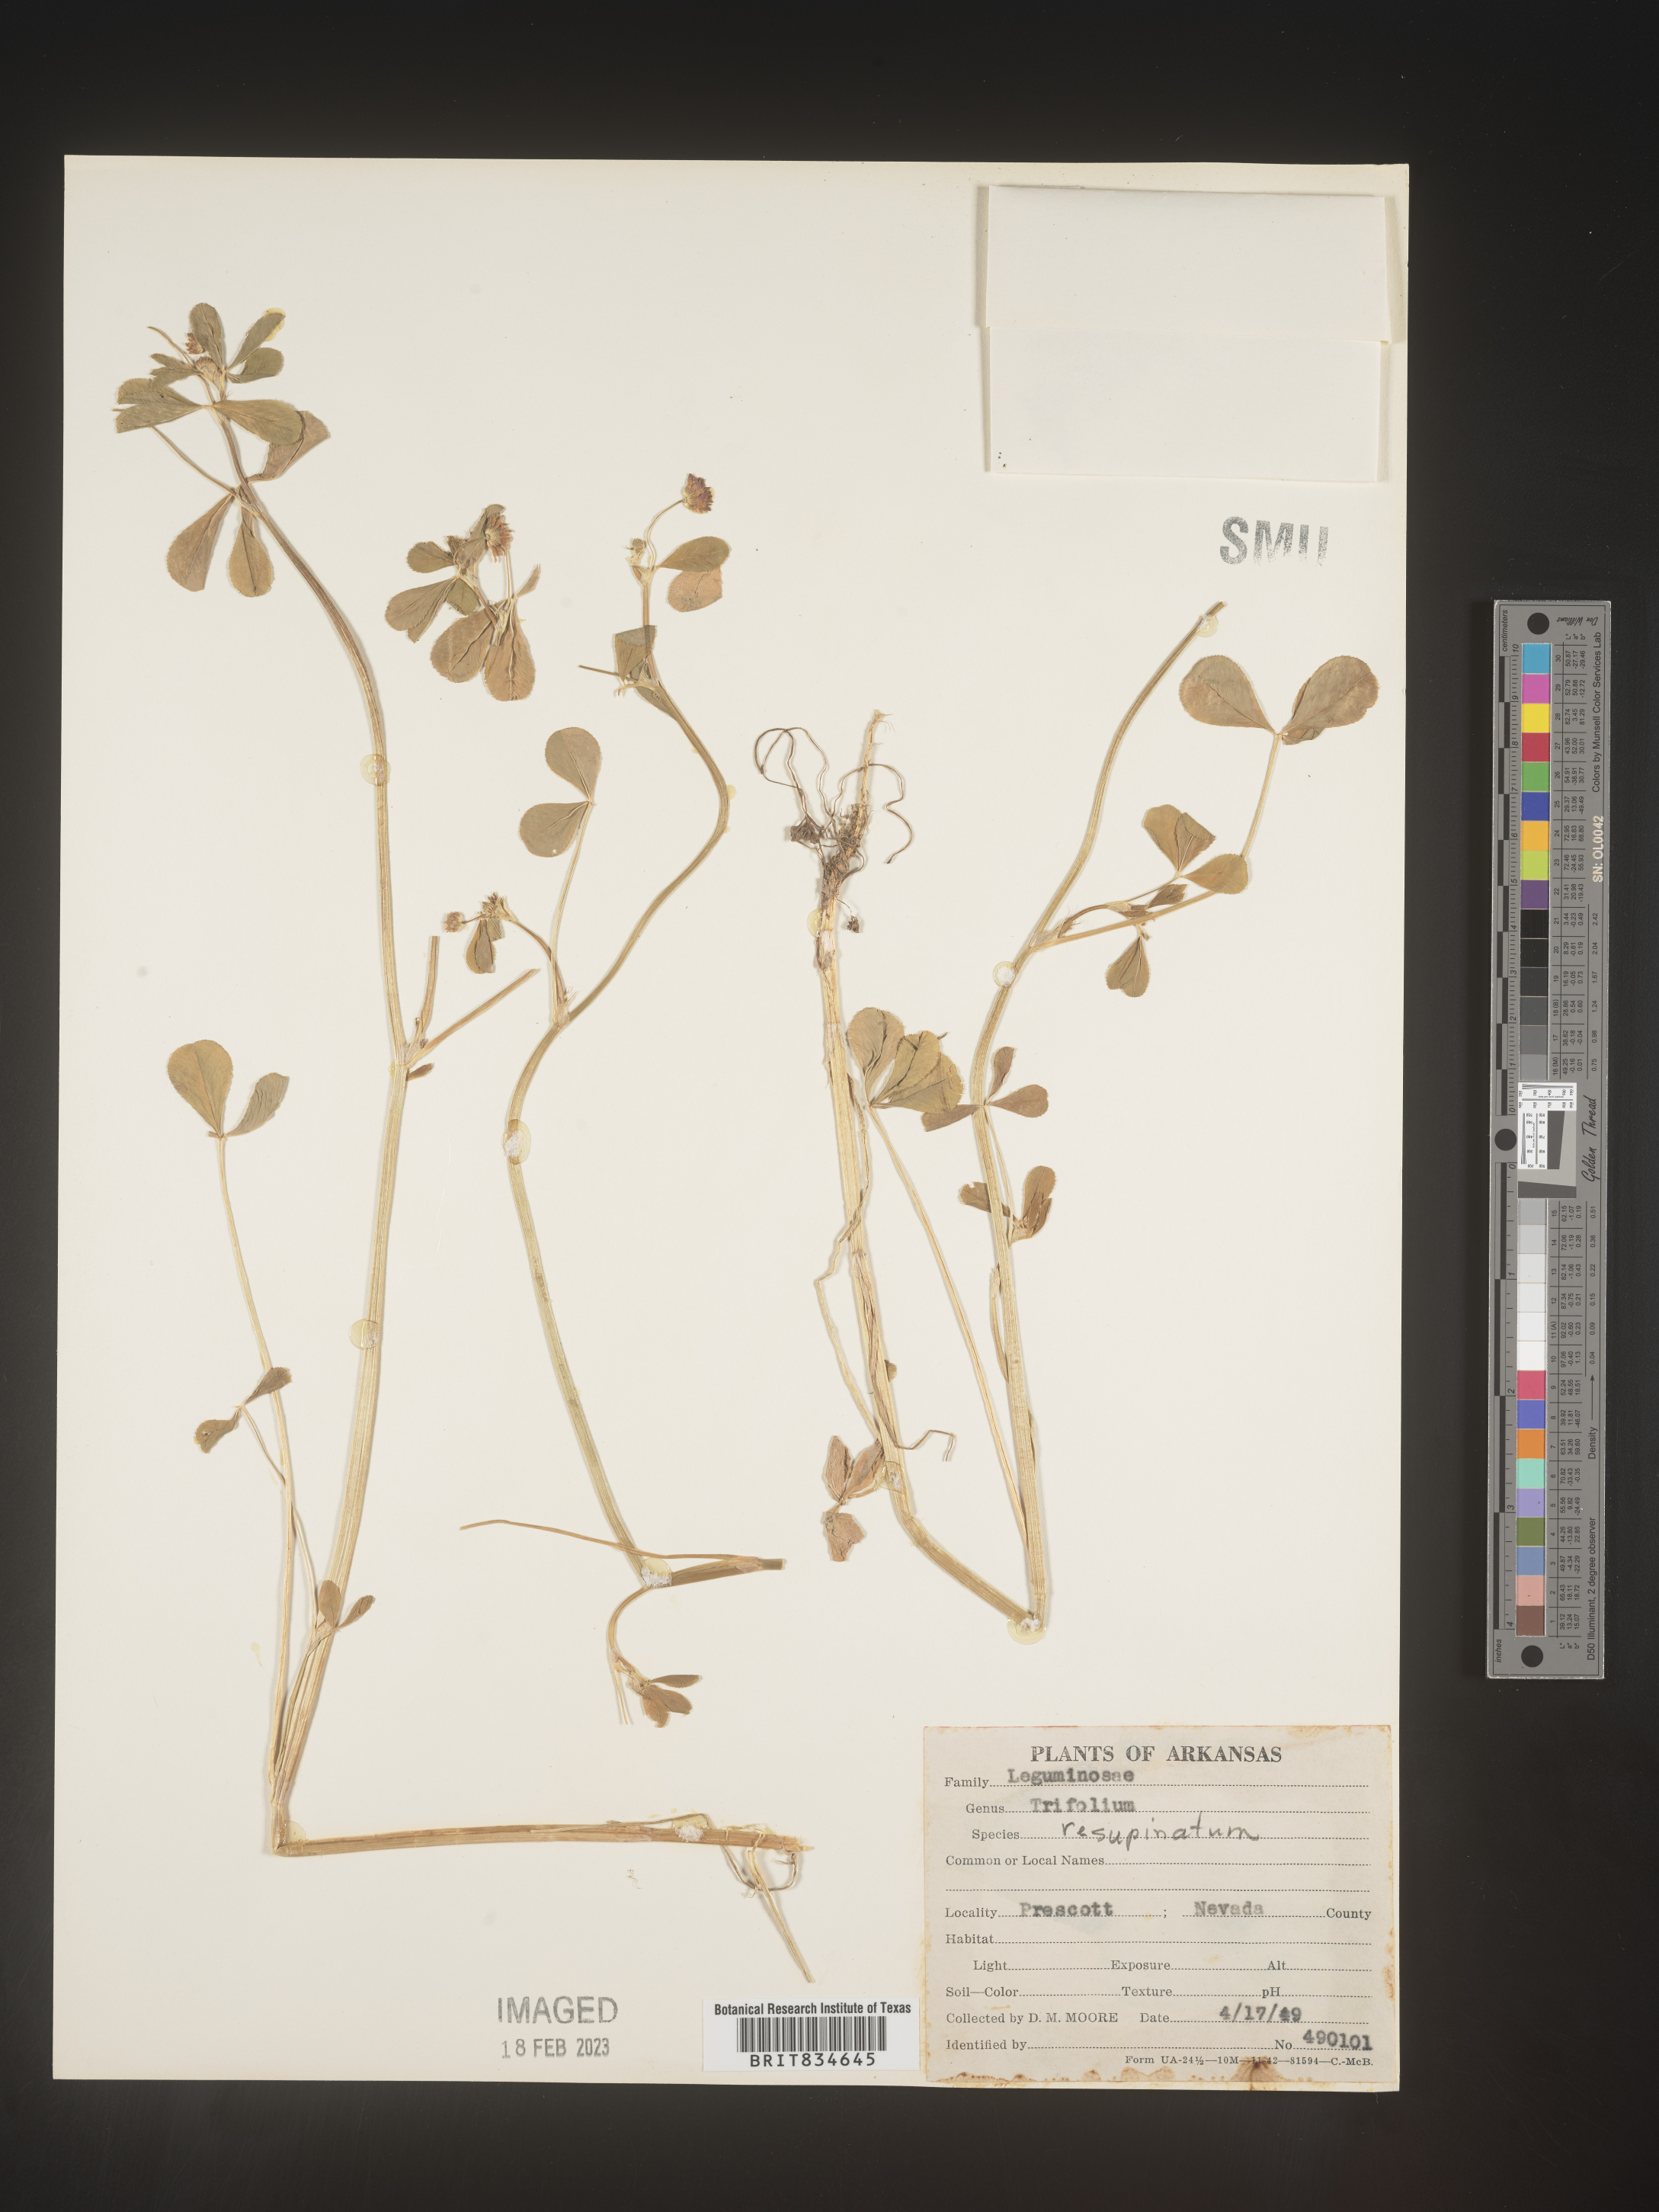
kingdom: Plantae
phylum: Tracheophyta
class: Magnoliopsida
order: Fabales
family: Fabaceae
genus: Trifolium
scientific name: Trifolium resupinatum
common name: Reversed clover
